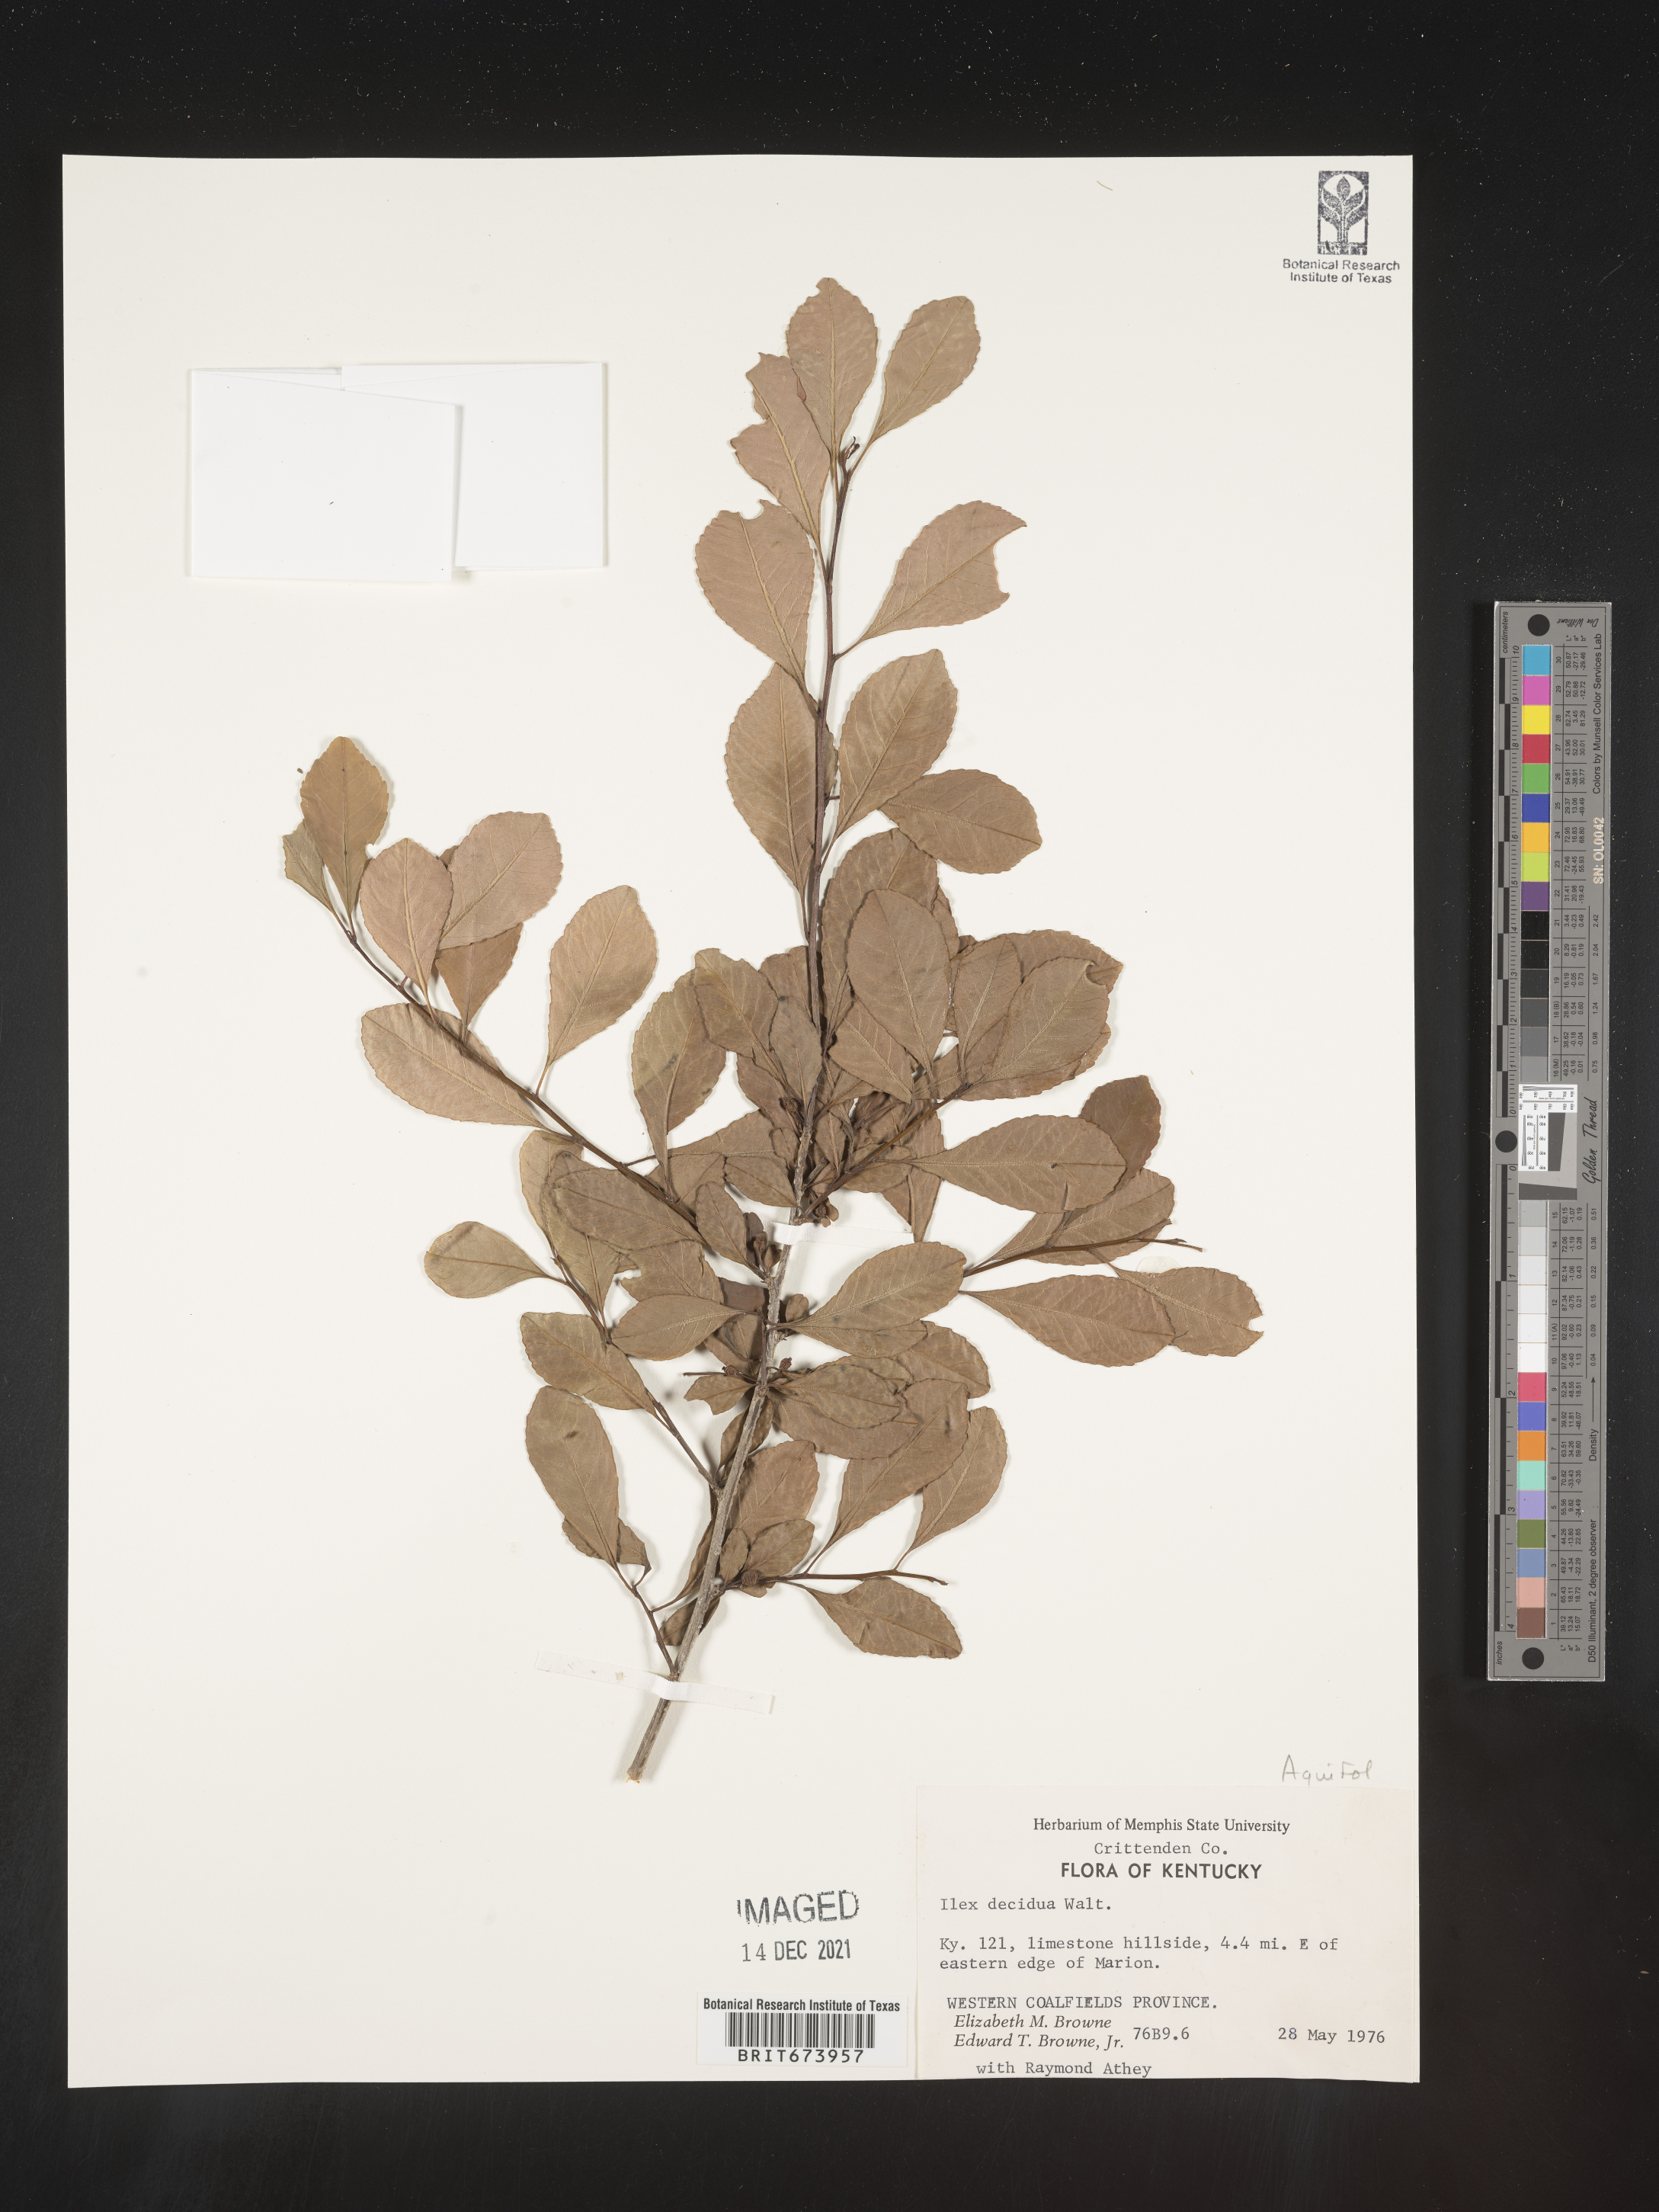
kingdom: Plantae
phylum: Tracheophyta
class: Magnoliopsida
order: Aquifoliales
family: Aquifoliaceae
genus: Ilex
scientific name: Ilex decidua
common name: Possum-haw
